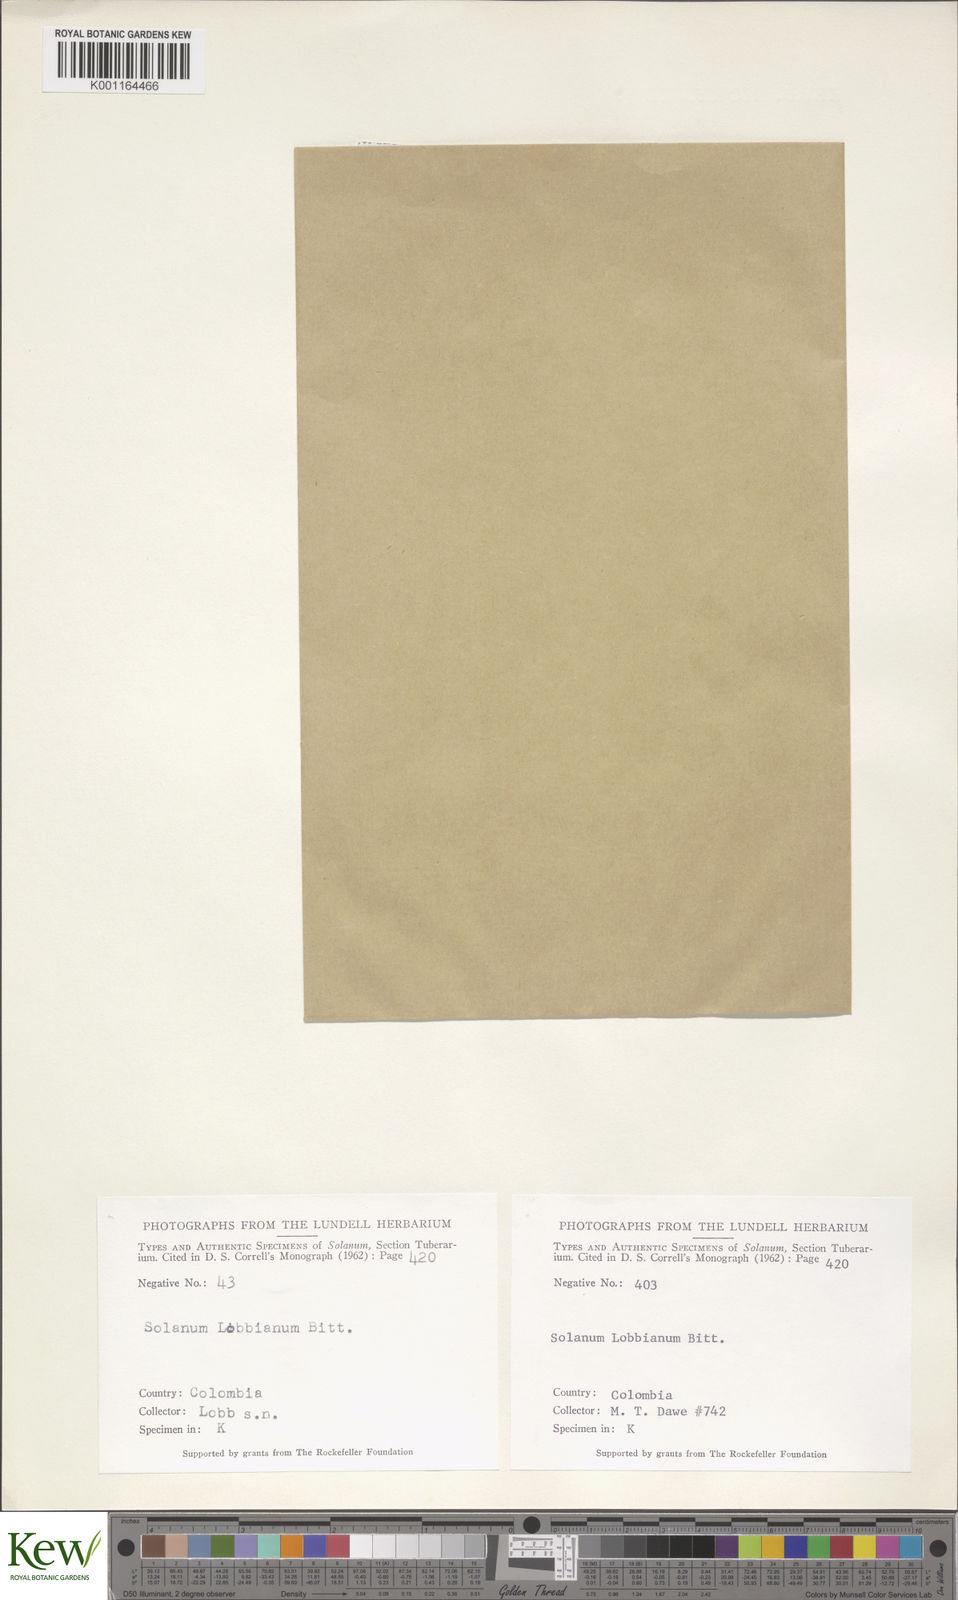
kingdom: Plantae
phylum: Tracheophyta
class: Magnoliopsida
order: Solanales
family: Solanaceae
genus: Solanum
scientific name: Solanum candolleanum
